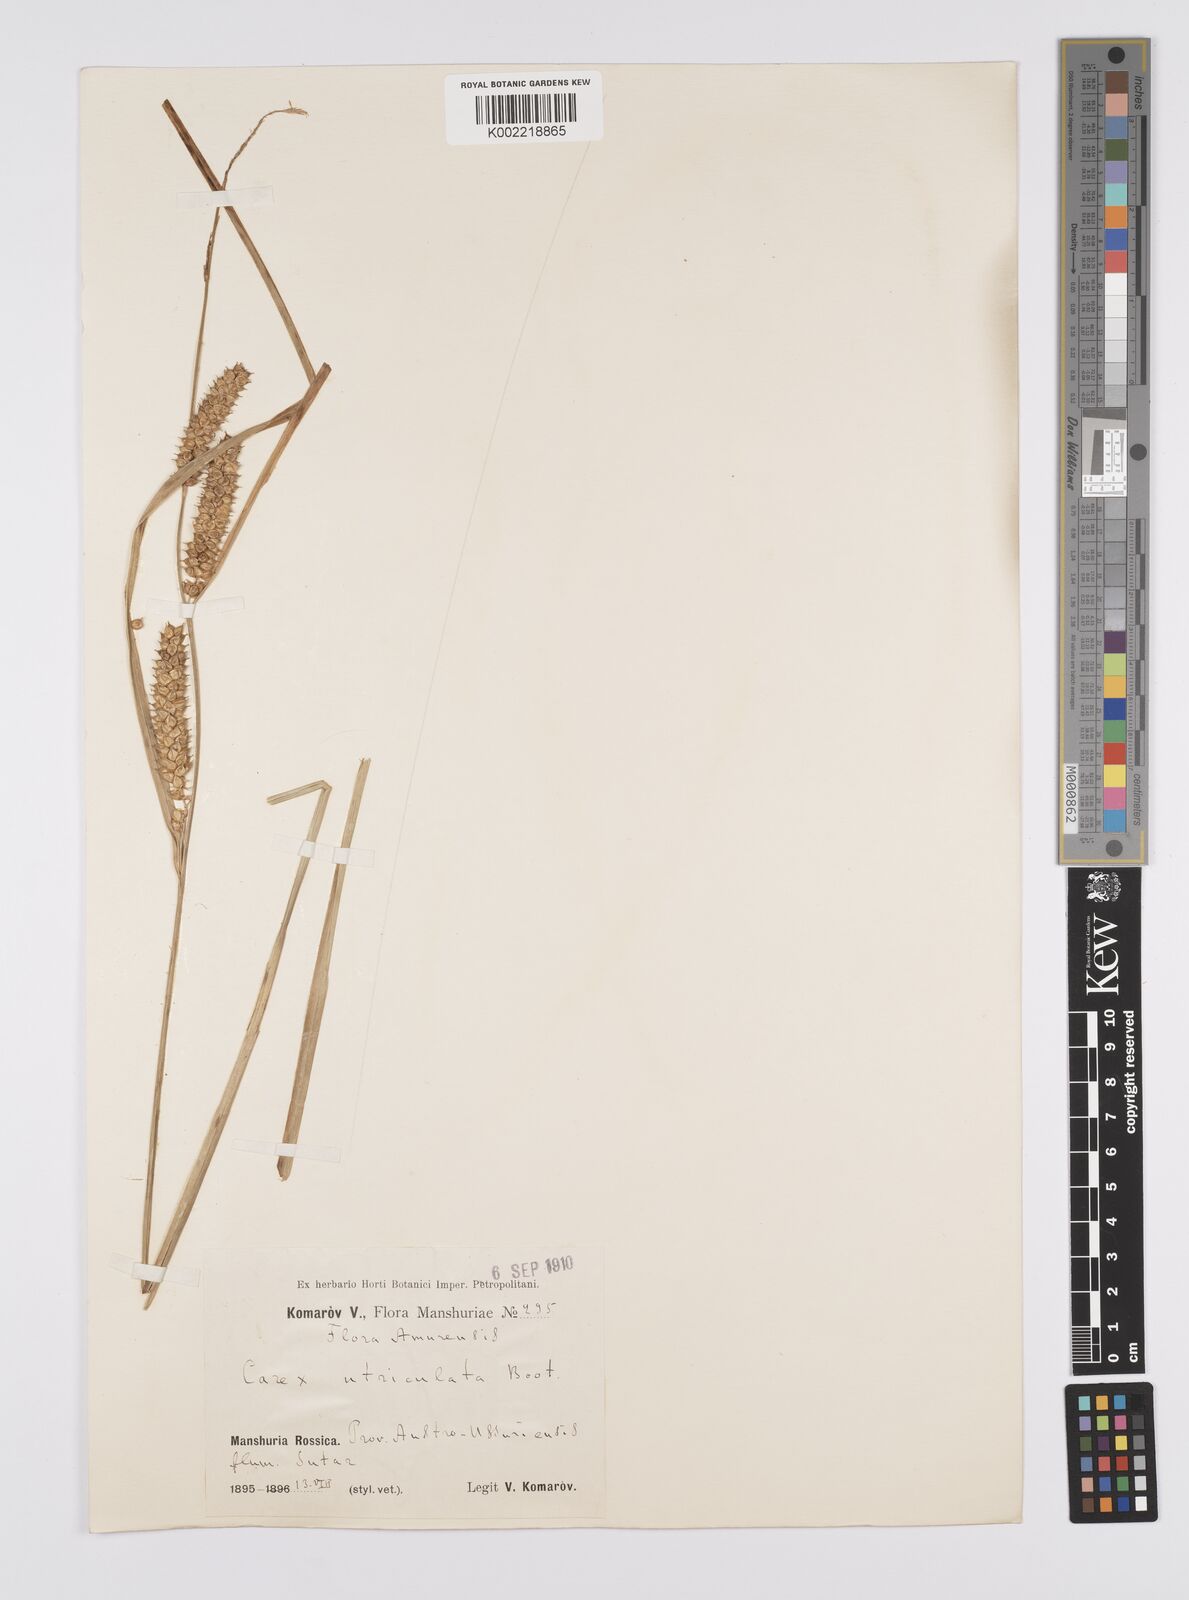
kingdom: Plantae
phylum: Tracheophyta
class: Liliopsida
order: Poales
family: Cyperaceae
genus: Carex
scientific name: Carex lurida
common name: Sallow sedge
